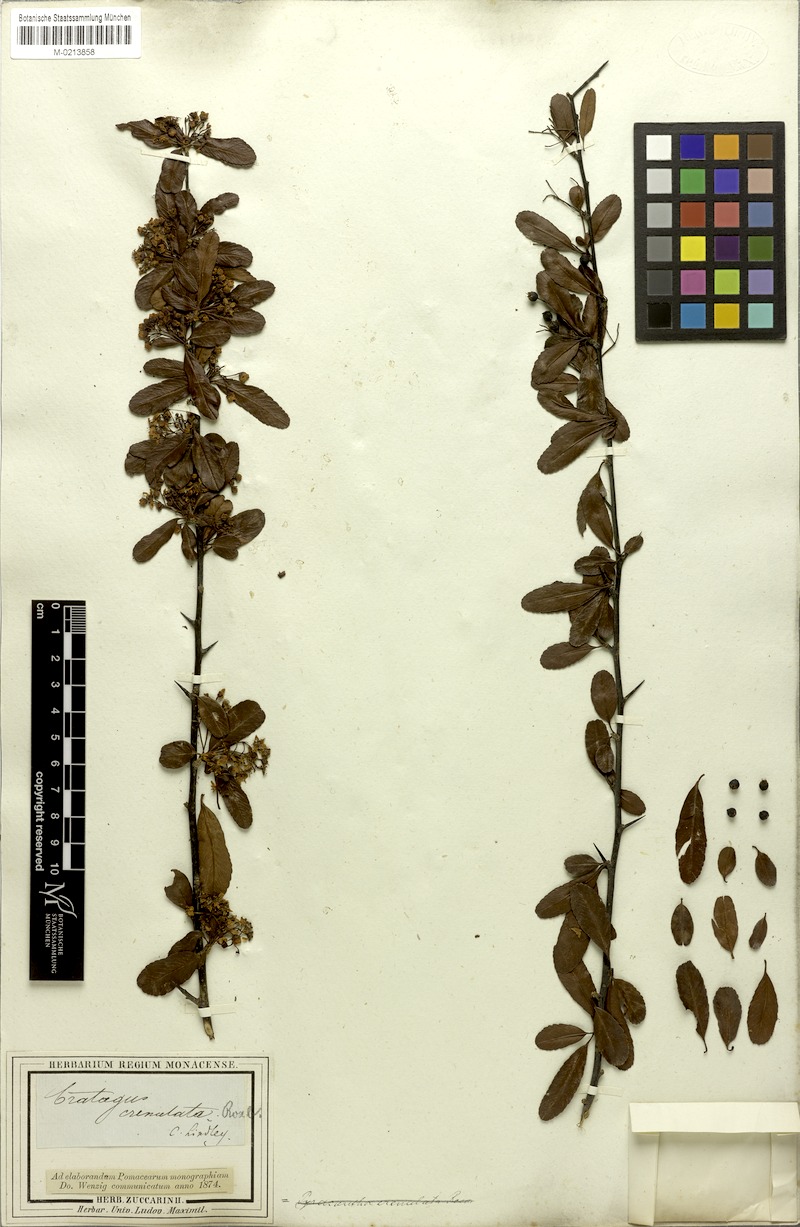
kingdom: Plantae
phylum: Tracheophyta
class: Magnoliopsida
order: Rosales
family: Rosaceae
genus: Pyracantha
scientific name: Pyracantha crenulata
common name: Nepalese firethorn
